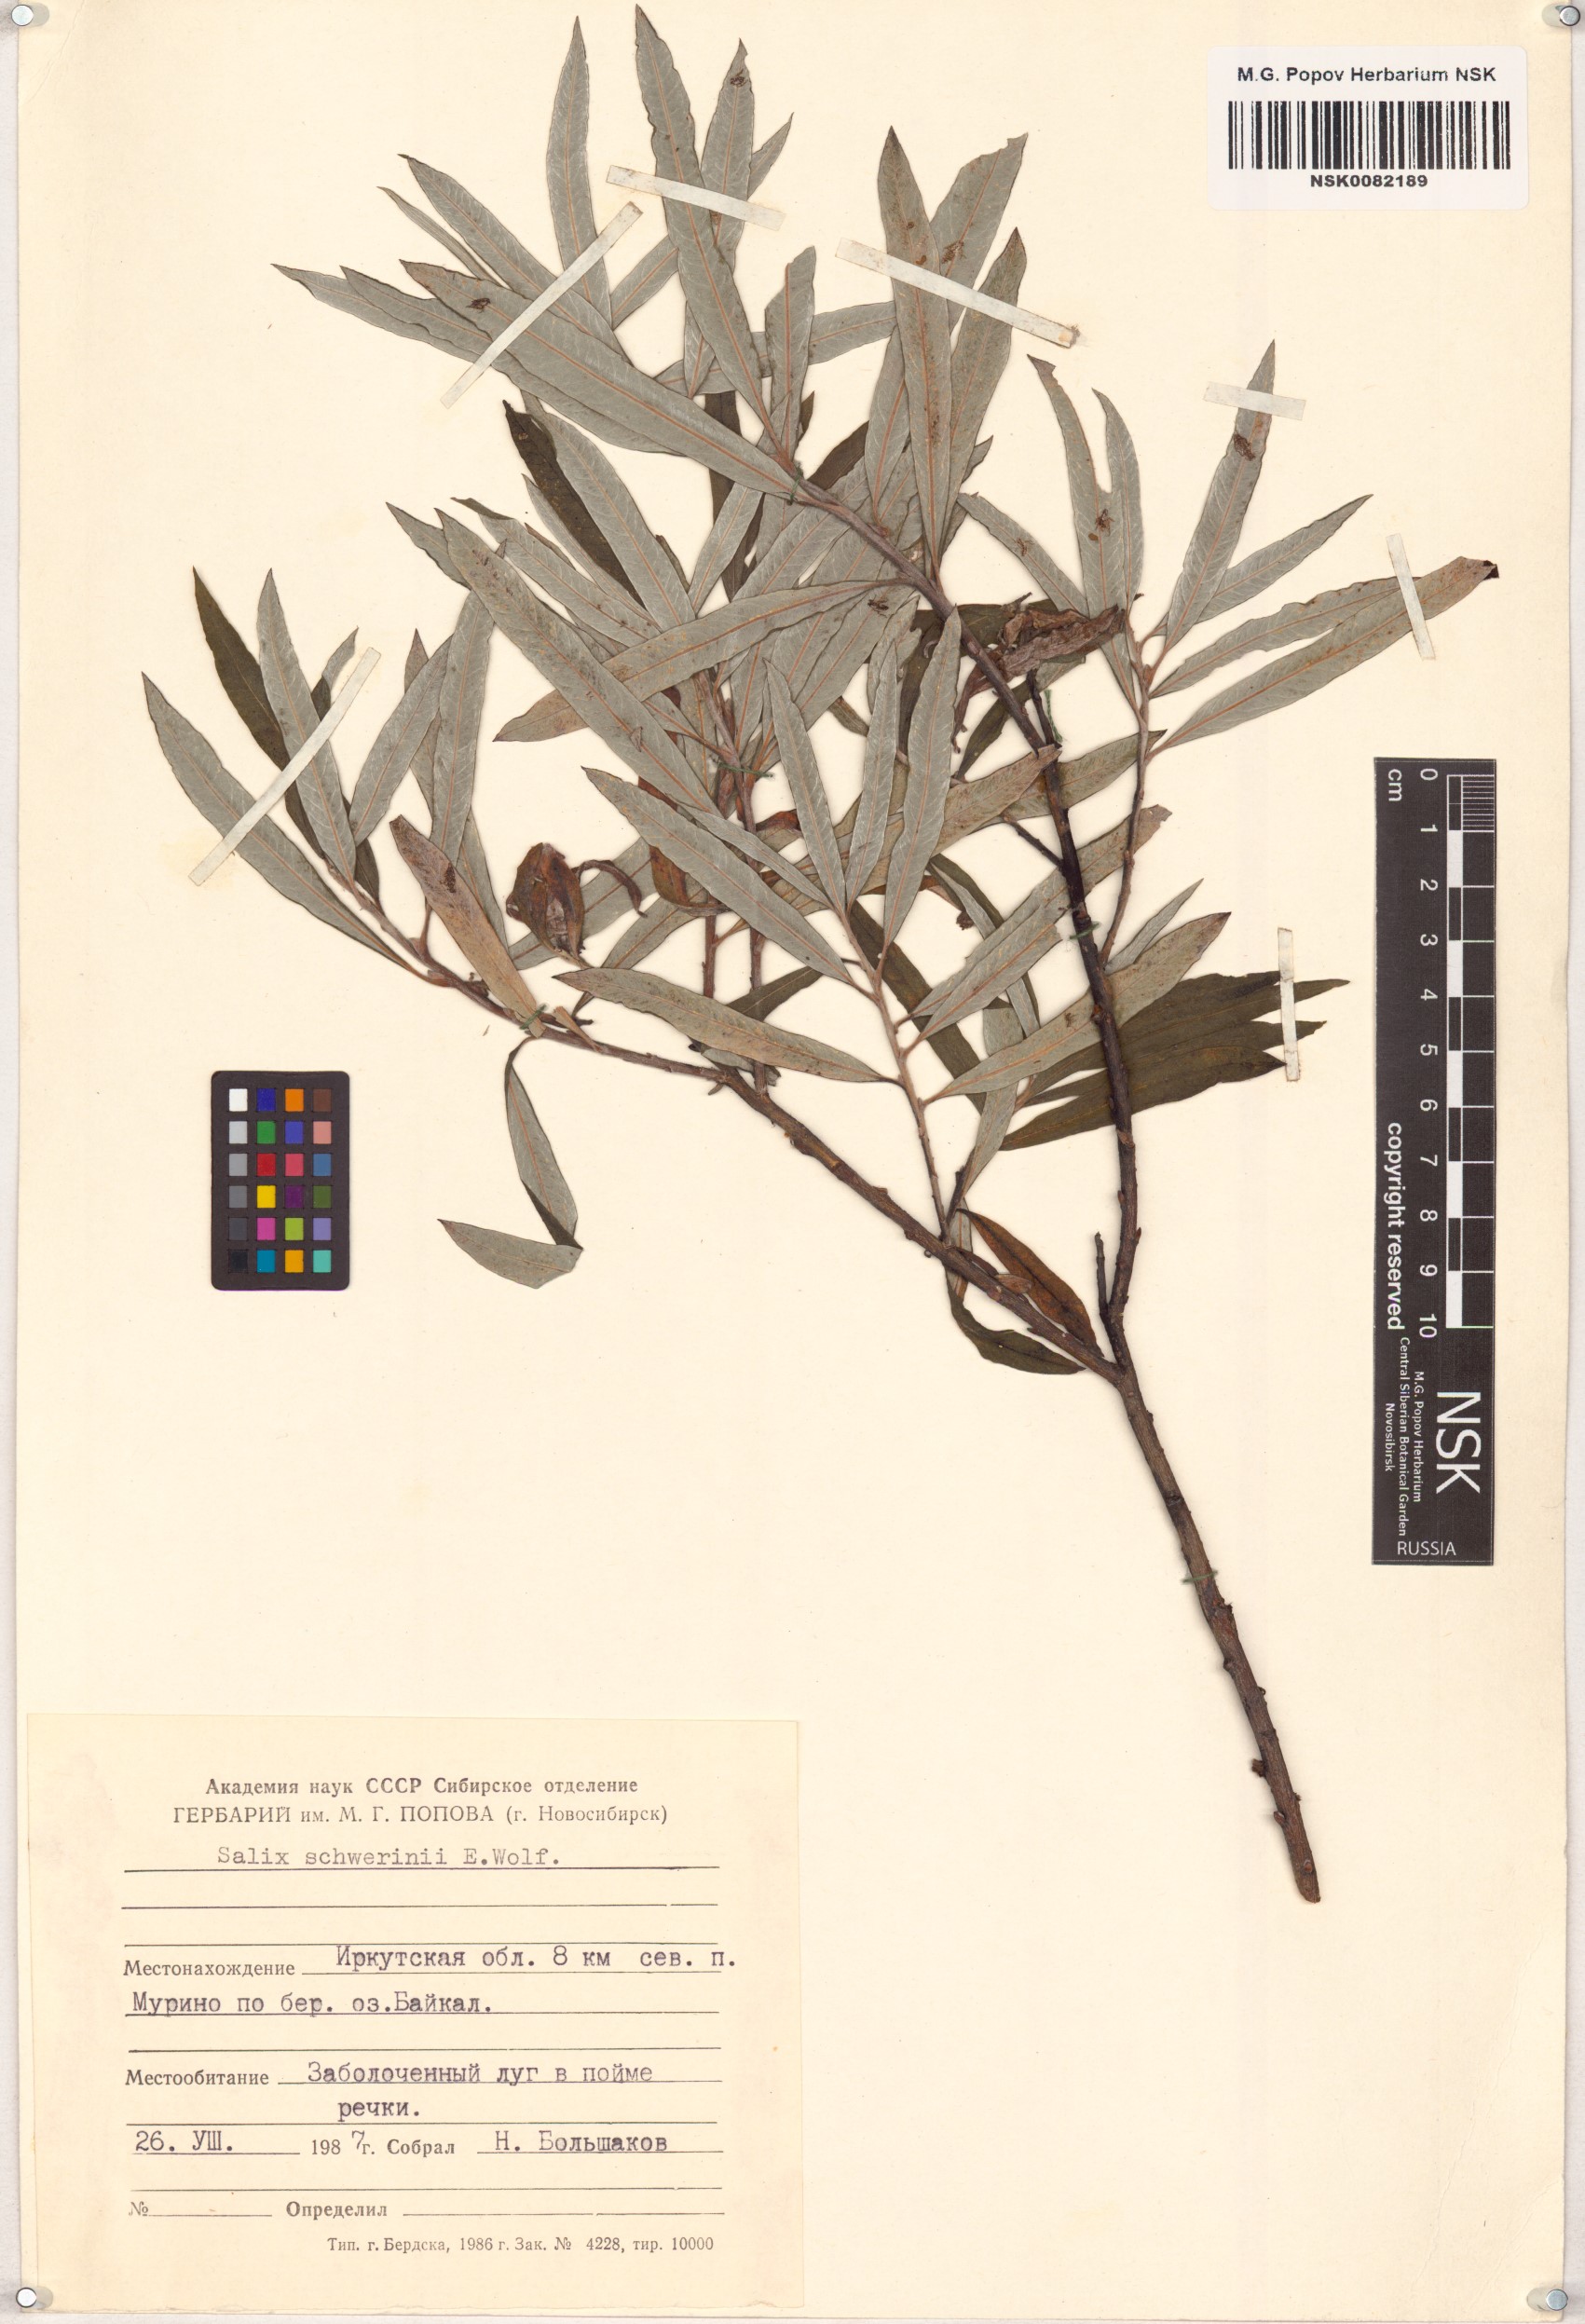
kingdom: Plantae
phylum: Tracheophyta
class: Magnoliopsida
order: Malpighiales
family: Salicaceae
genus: Salix
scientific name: Salix schwerinii
